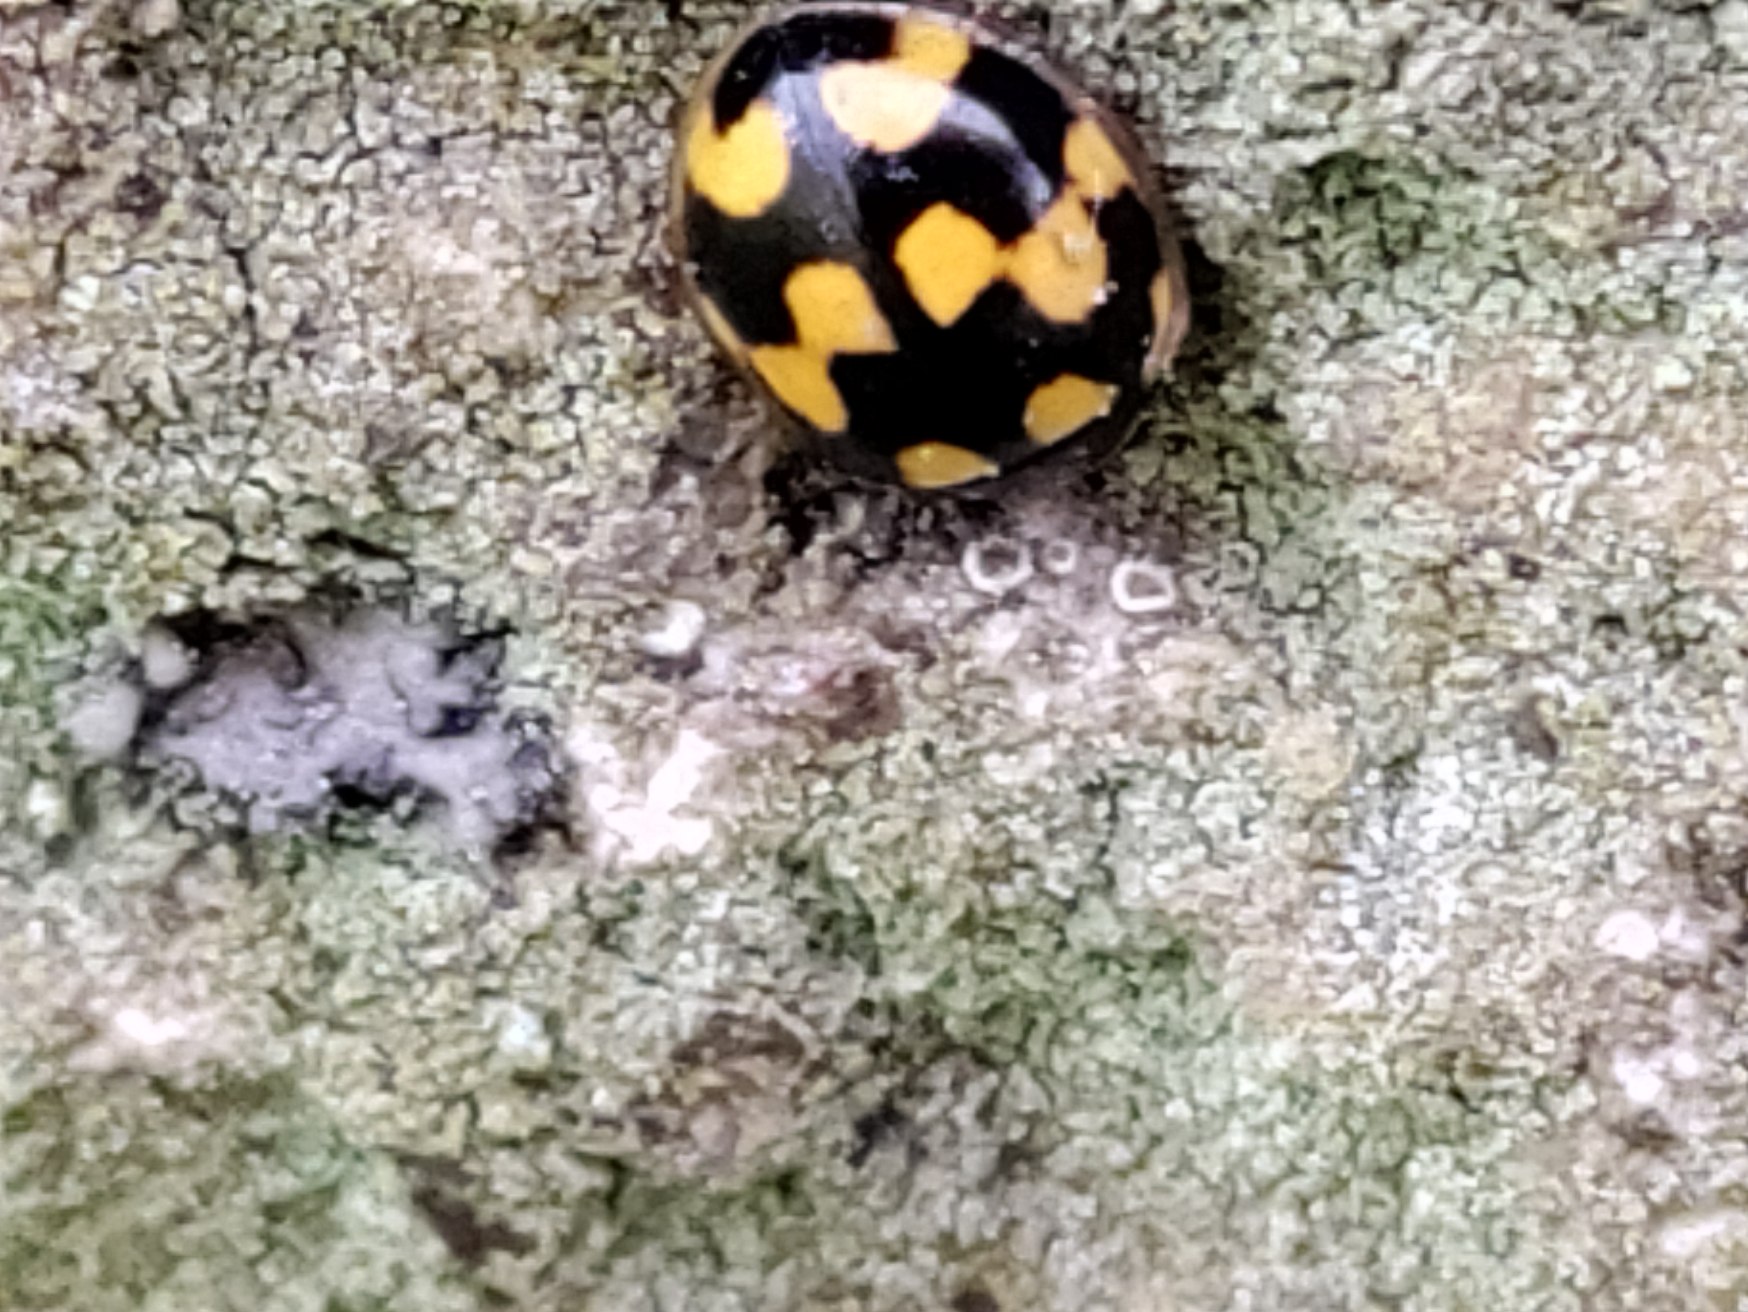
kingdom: Animalia
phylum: Arthropoda
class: Insecta
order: Coleoptera
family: Coccinellidae
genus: Propylaea
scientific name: Propylaea quatuordecimpunctata
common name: Skakbræt
